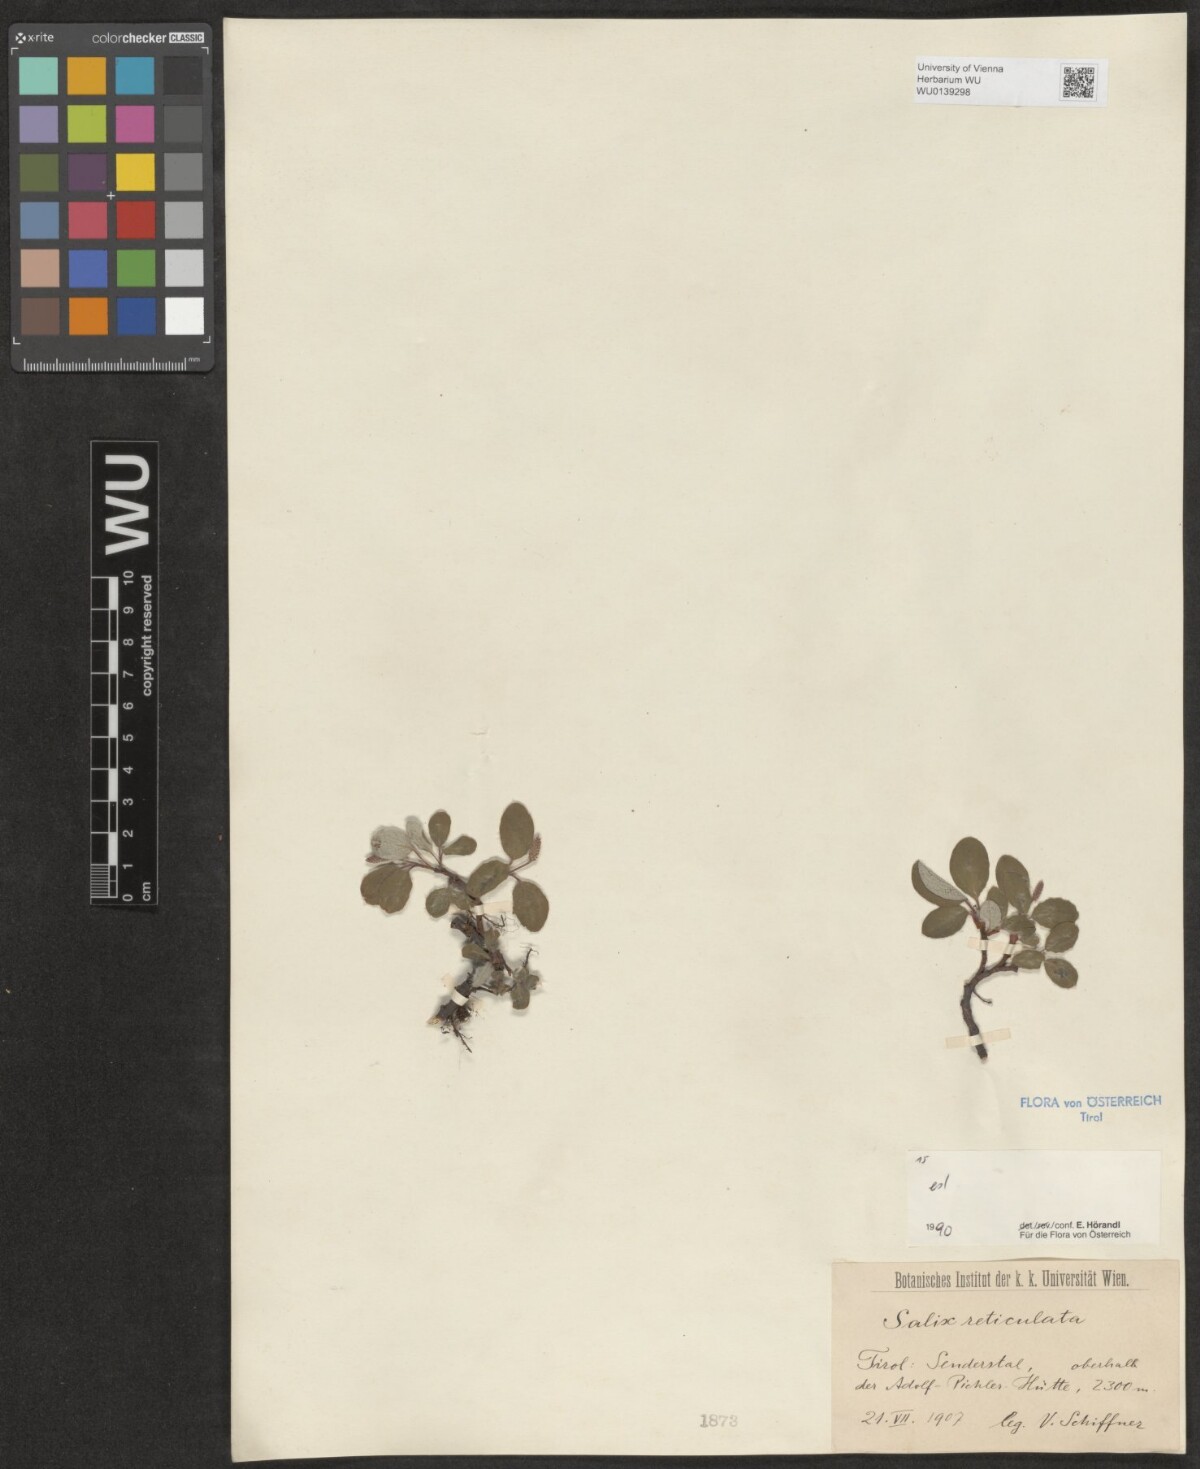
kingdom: Plantae
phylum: Tracheophyta
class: Magnoliopsida
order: Malpighiales
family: Salicaceae
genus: Salix
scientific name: Salix reticulata
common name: Net-leaved willow
